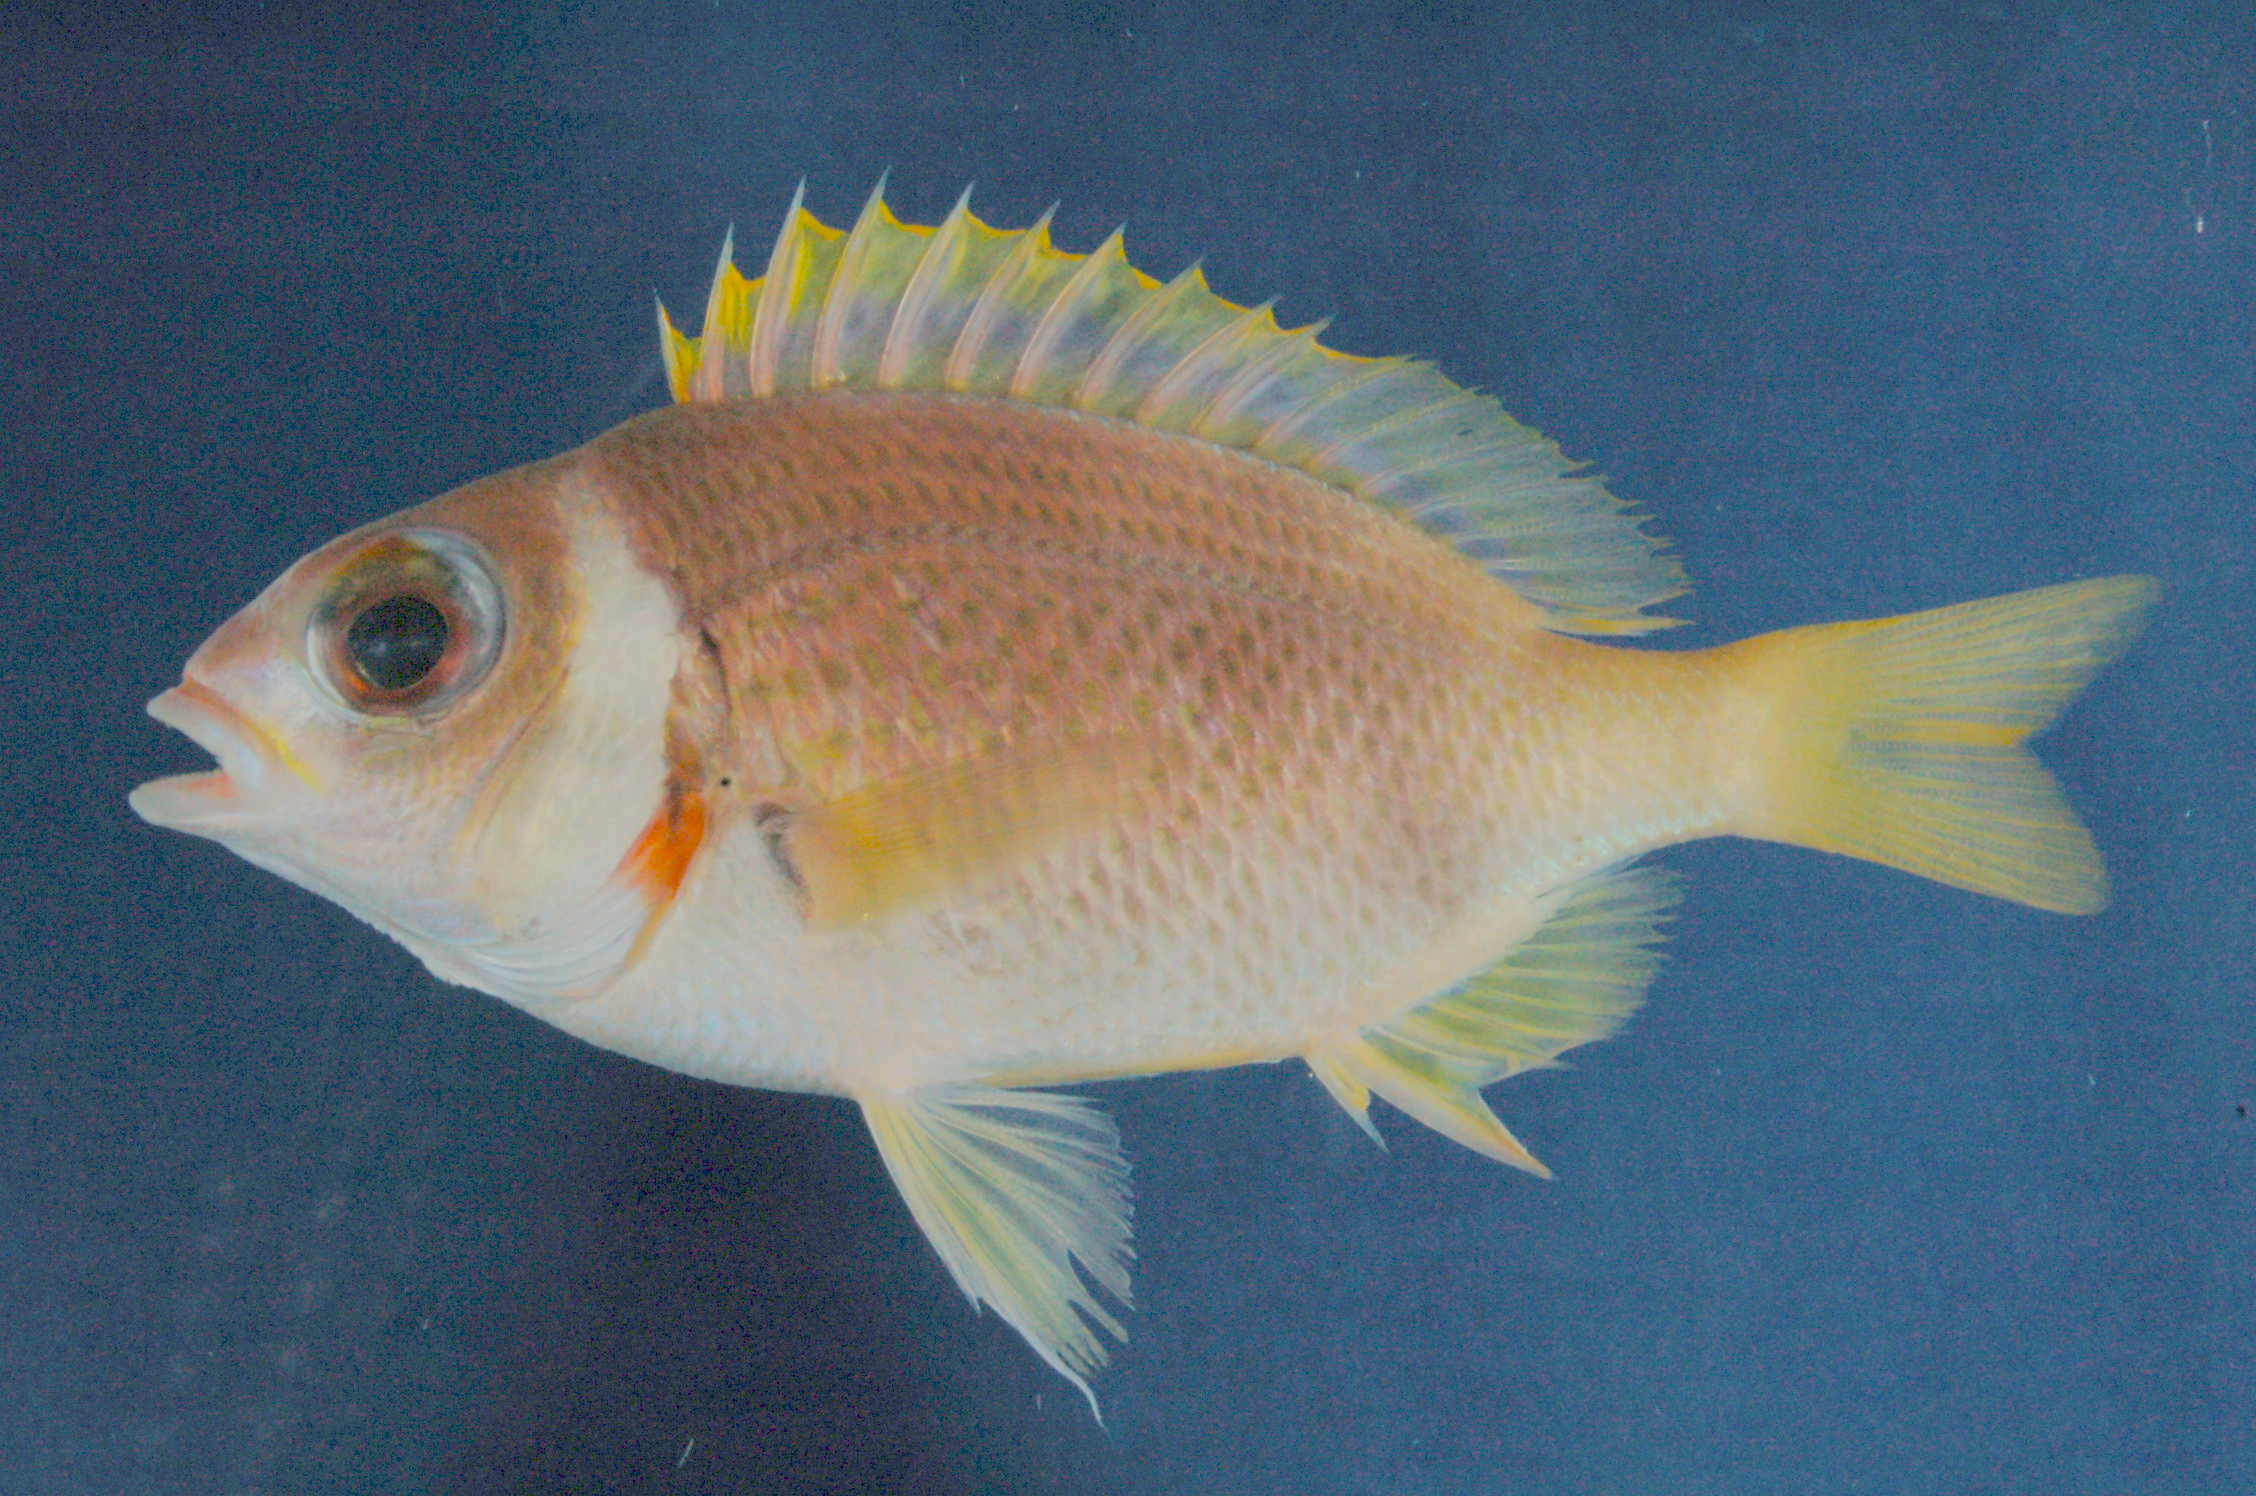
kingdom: Animalia
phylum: Chordata
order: Perciformes
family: Nemipteridae
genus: Scolopsis
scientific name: Scolopsis curite
